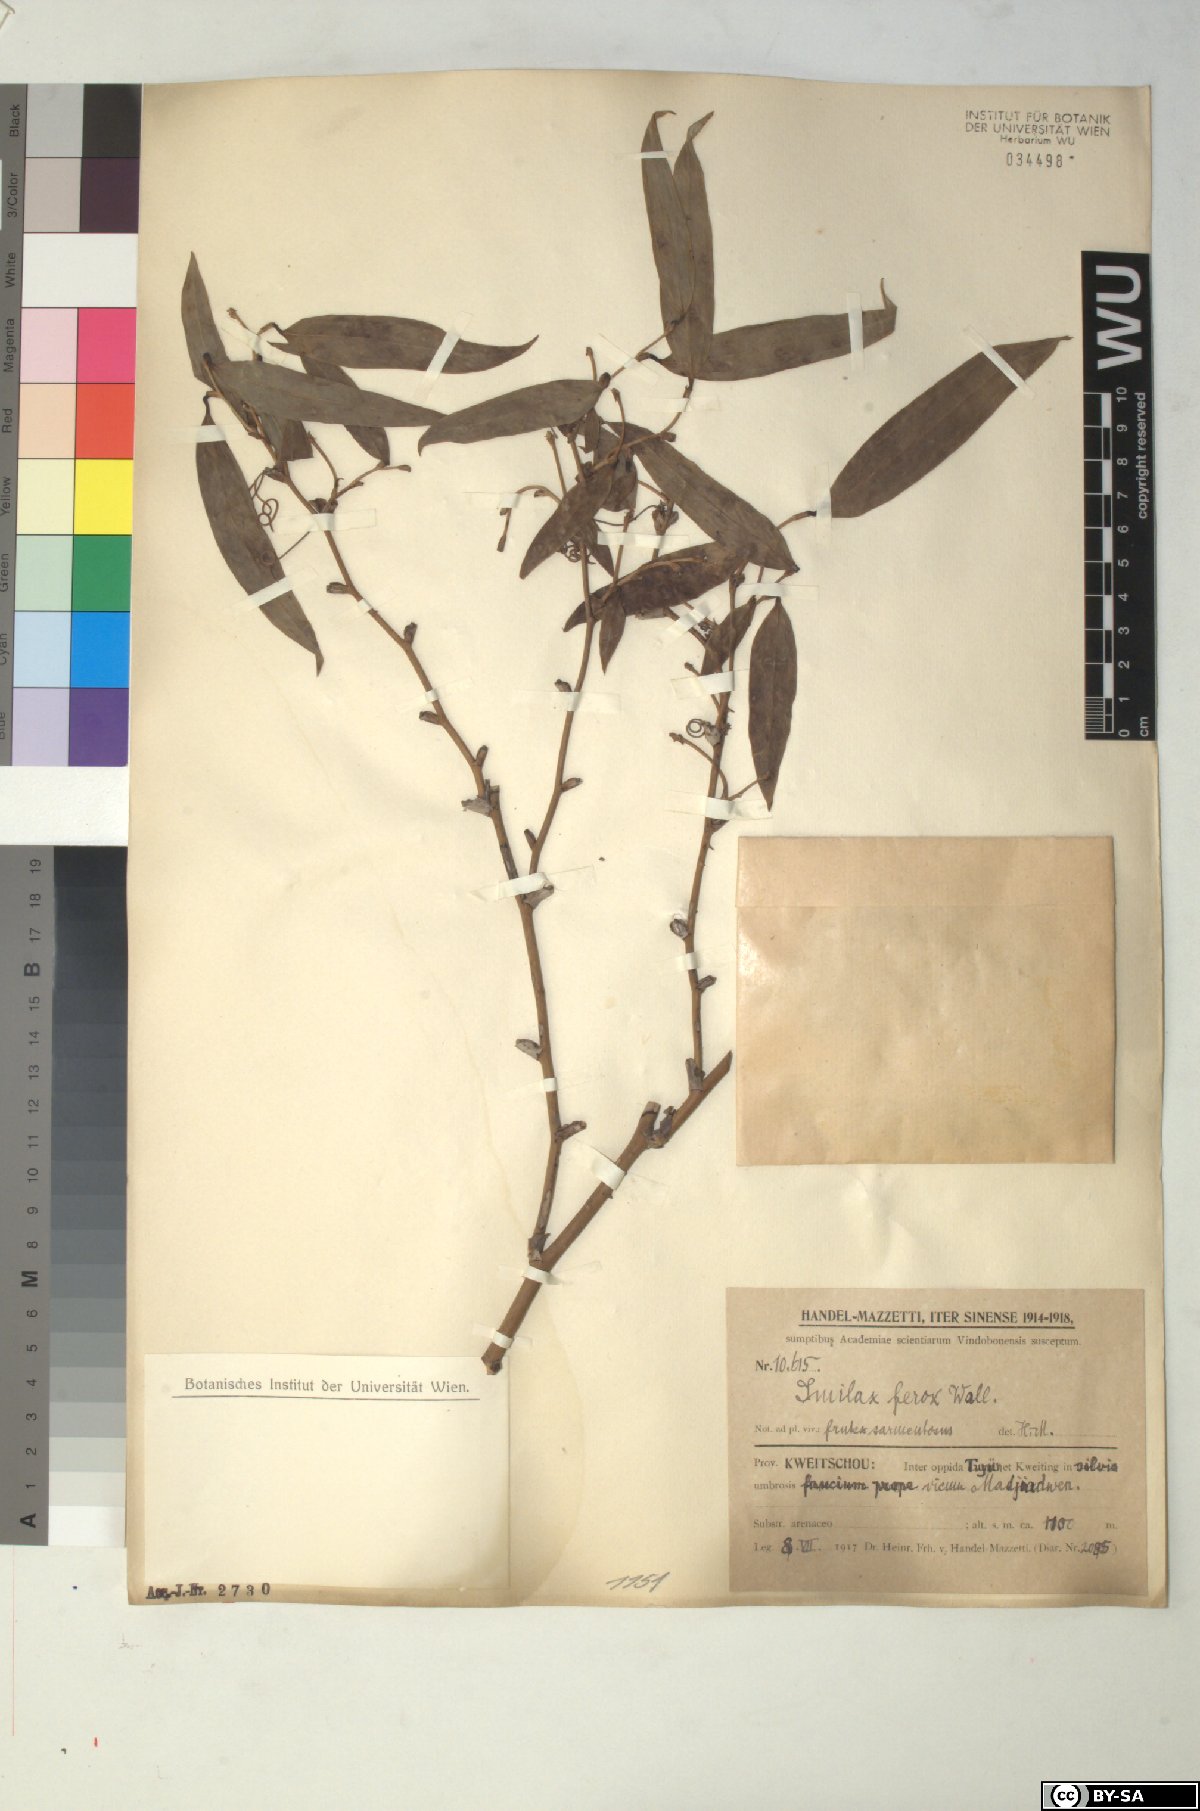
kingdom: Plantae
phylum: Tracheophyta
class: Liliopsida
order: Liliales
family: Smilacaceae
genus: Smilax
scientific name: Smilax ferox
